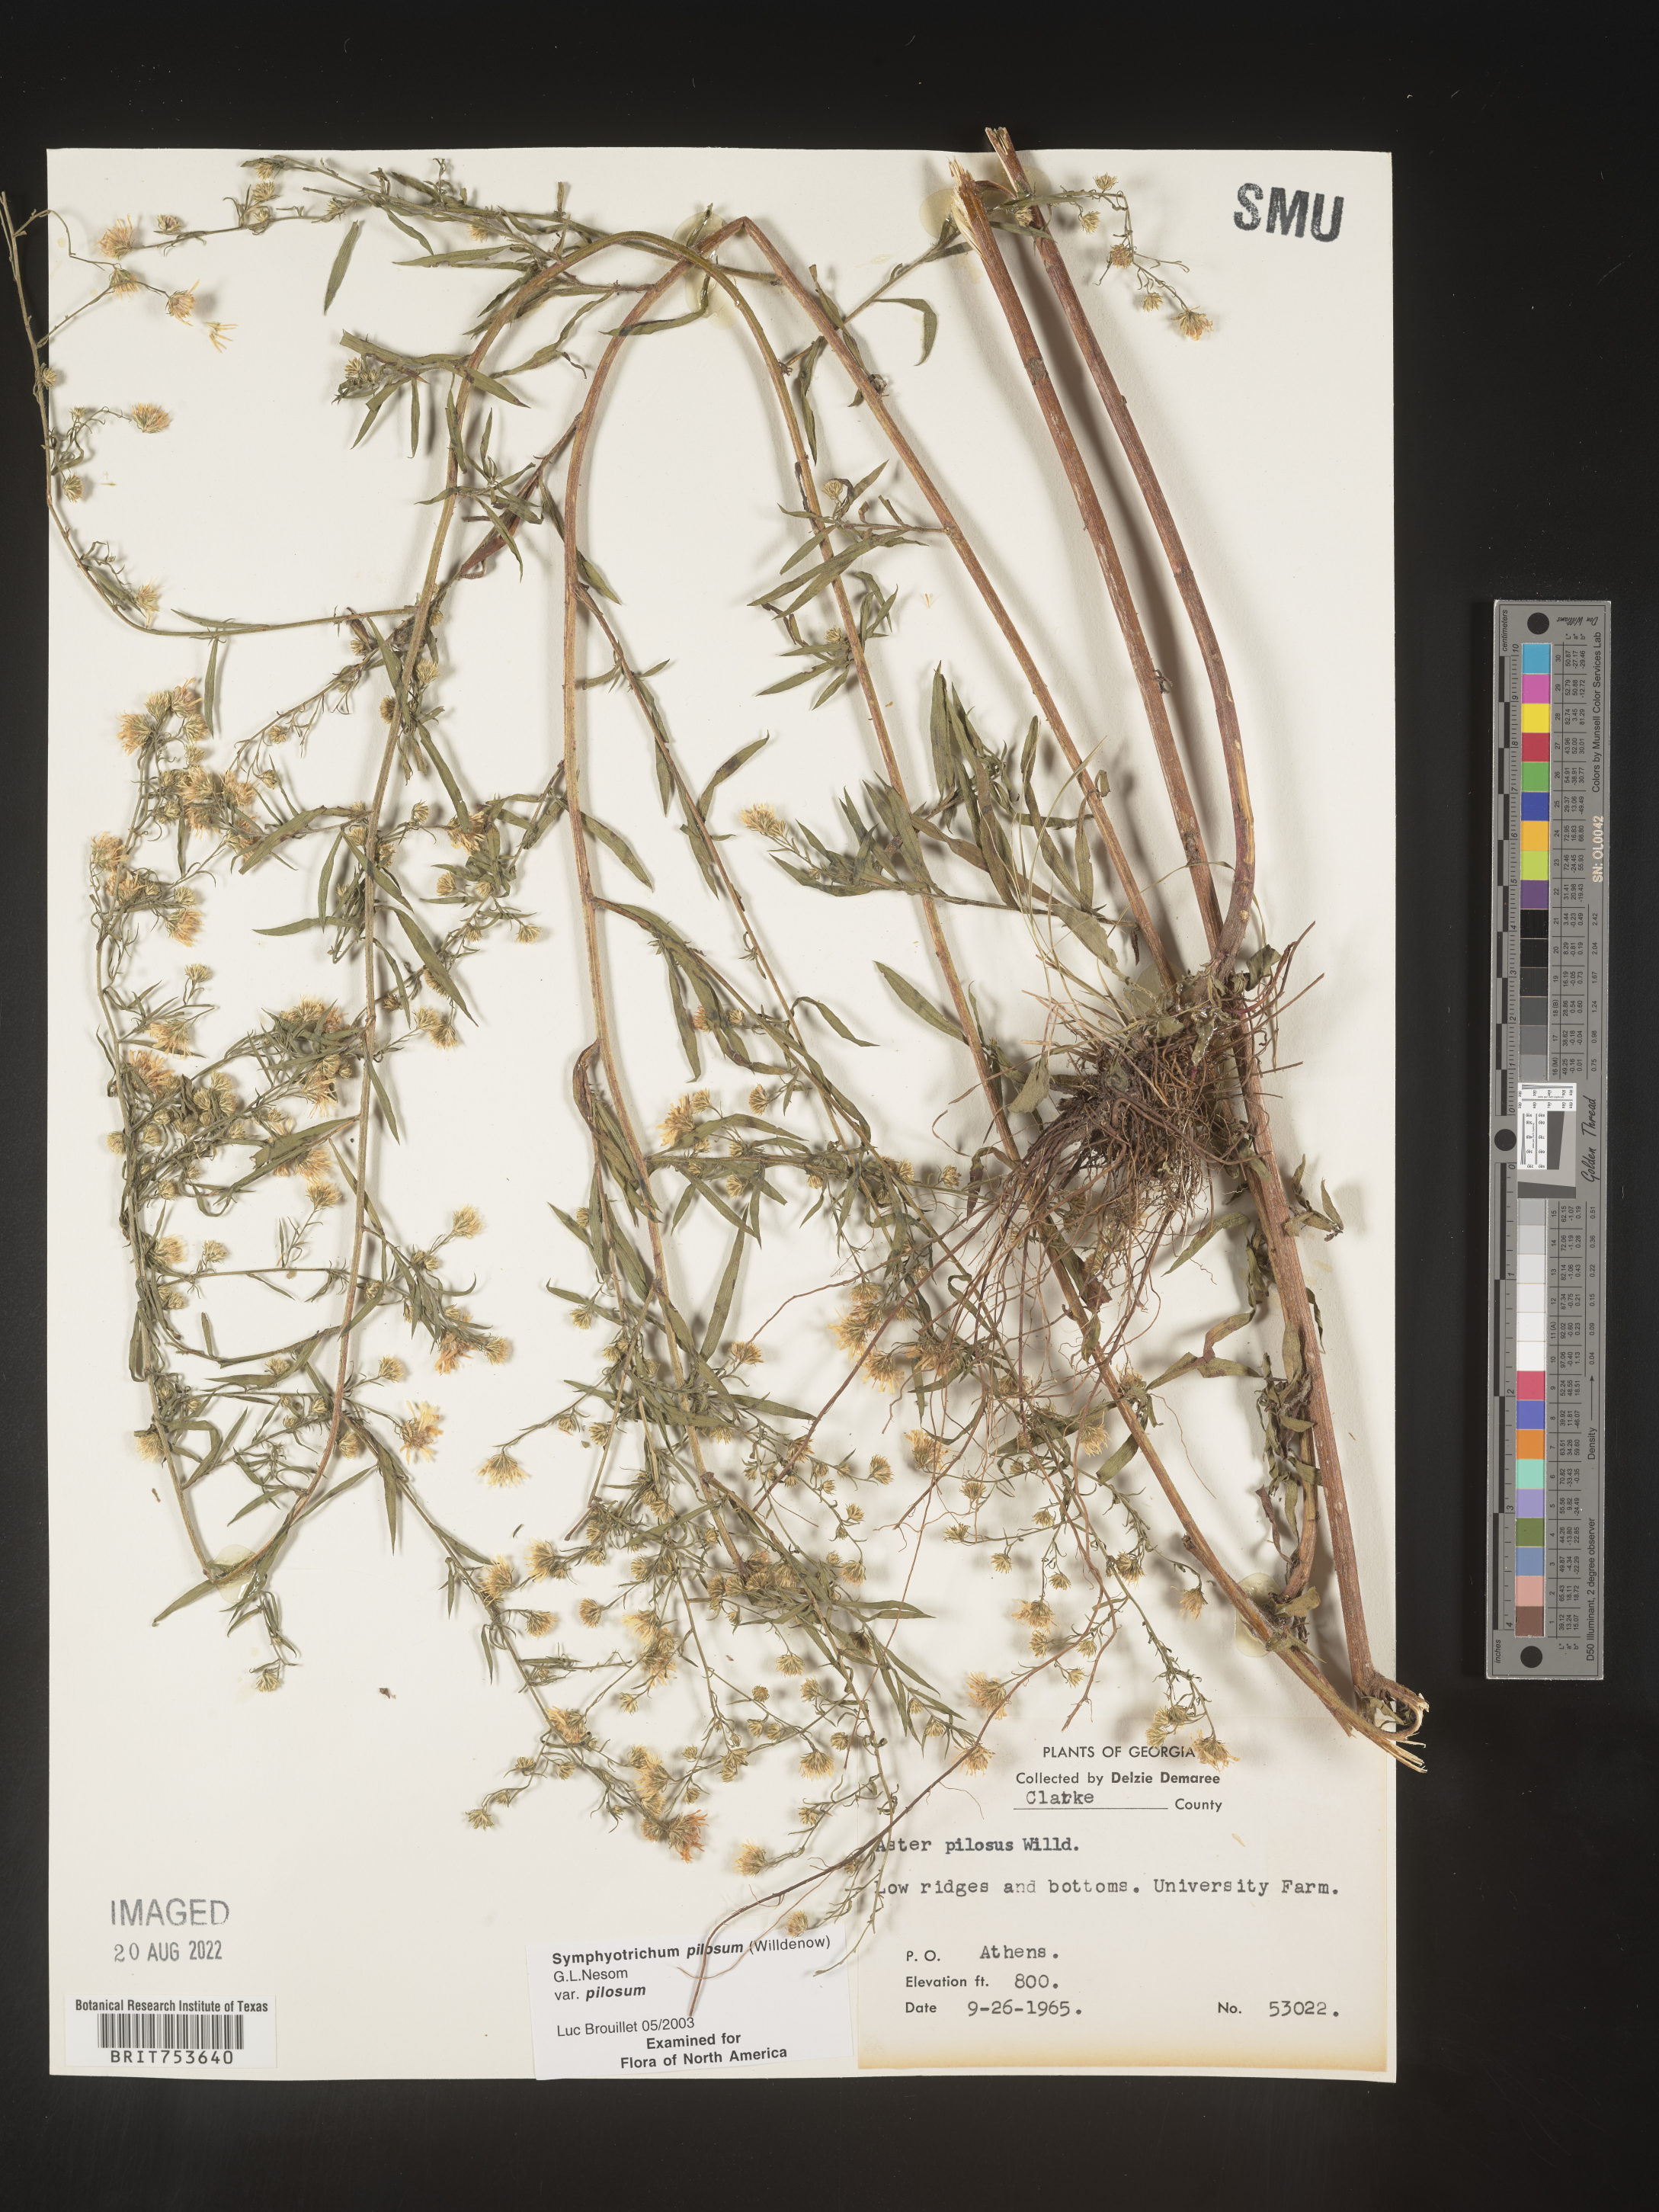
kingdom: Plantae
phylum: Tracheophyta
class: Magnoliopsida
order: Asterales
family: Asteraceae
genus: Symphyotrichum
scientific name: Symphyotrichum pilosum
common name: Awl aster
